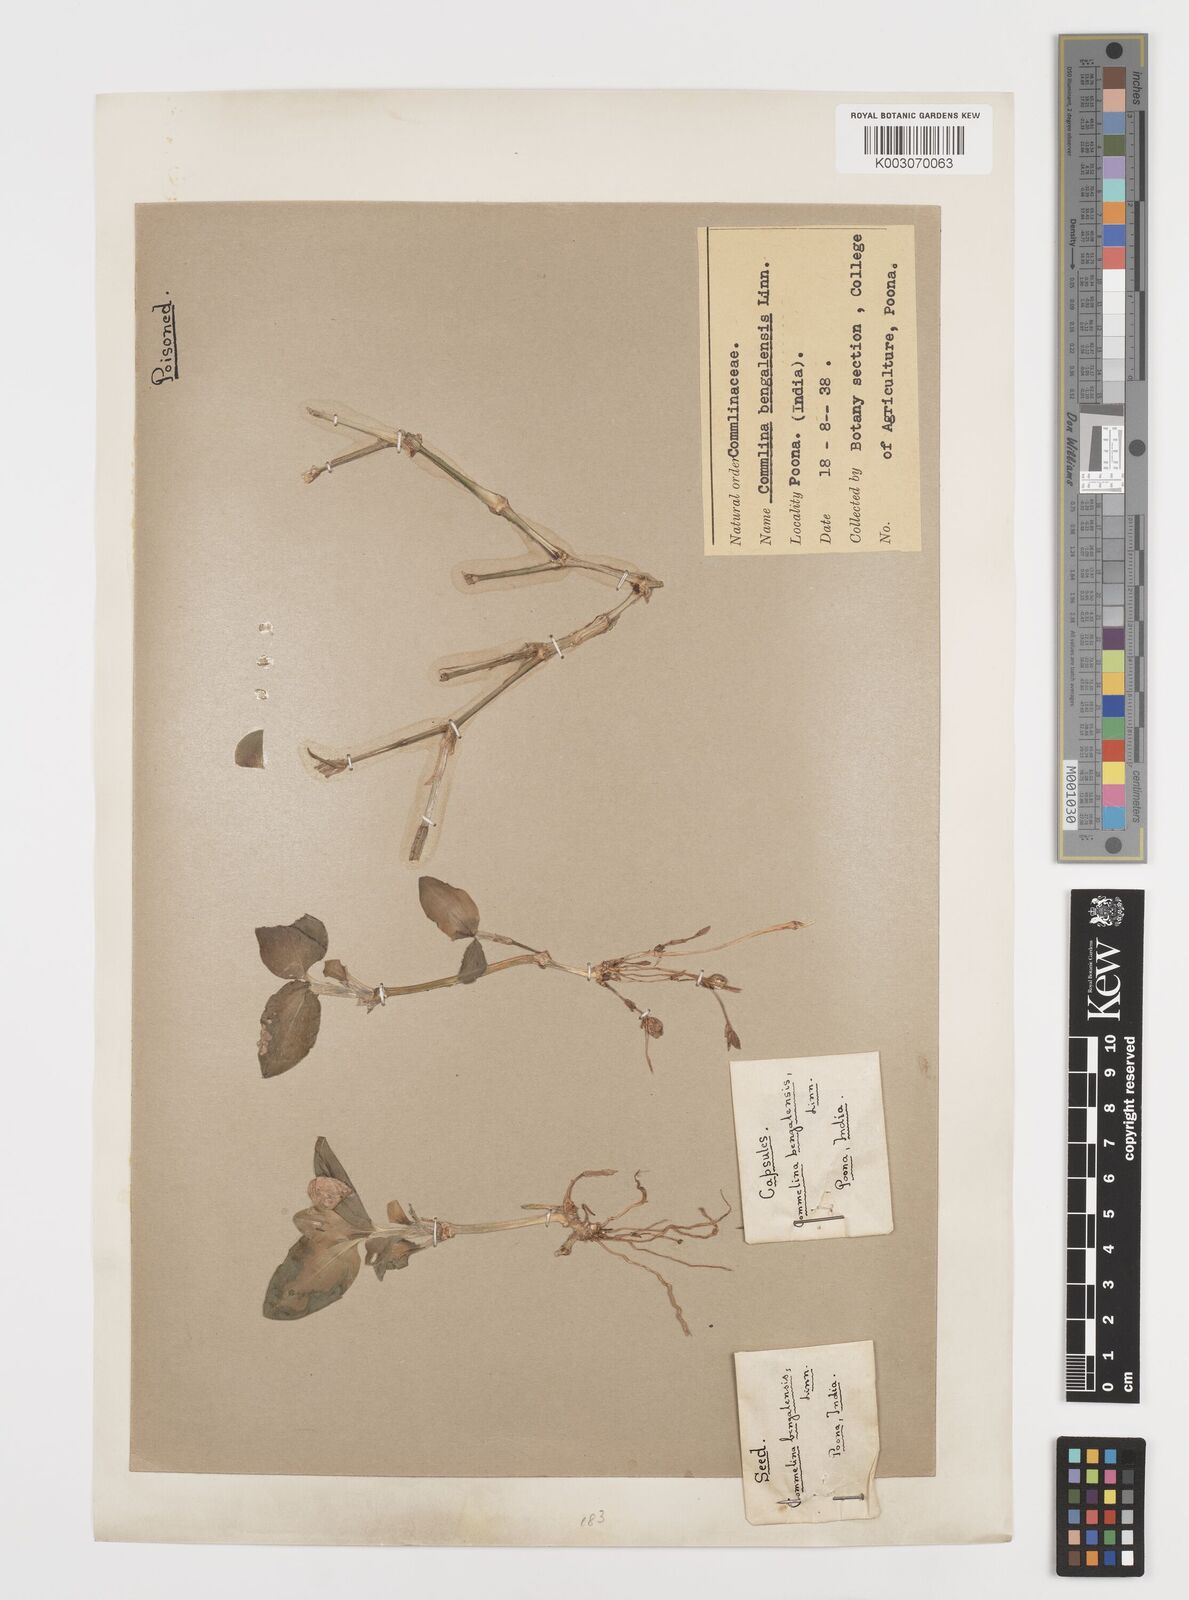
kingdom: Plantae
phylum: Tracheophyta
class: Liliopsida
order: Commelinales
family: Commelinaceae
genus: Commelina
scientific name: Commelina benghalensis
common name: Jio
